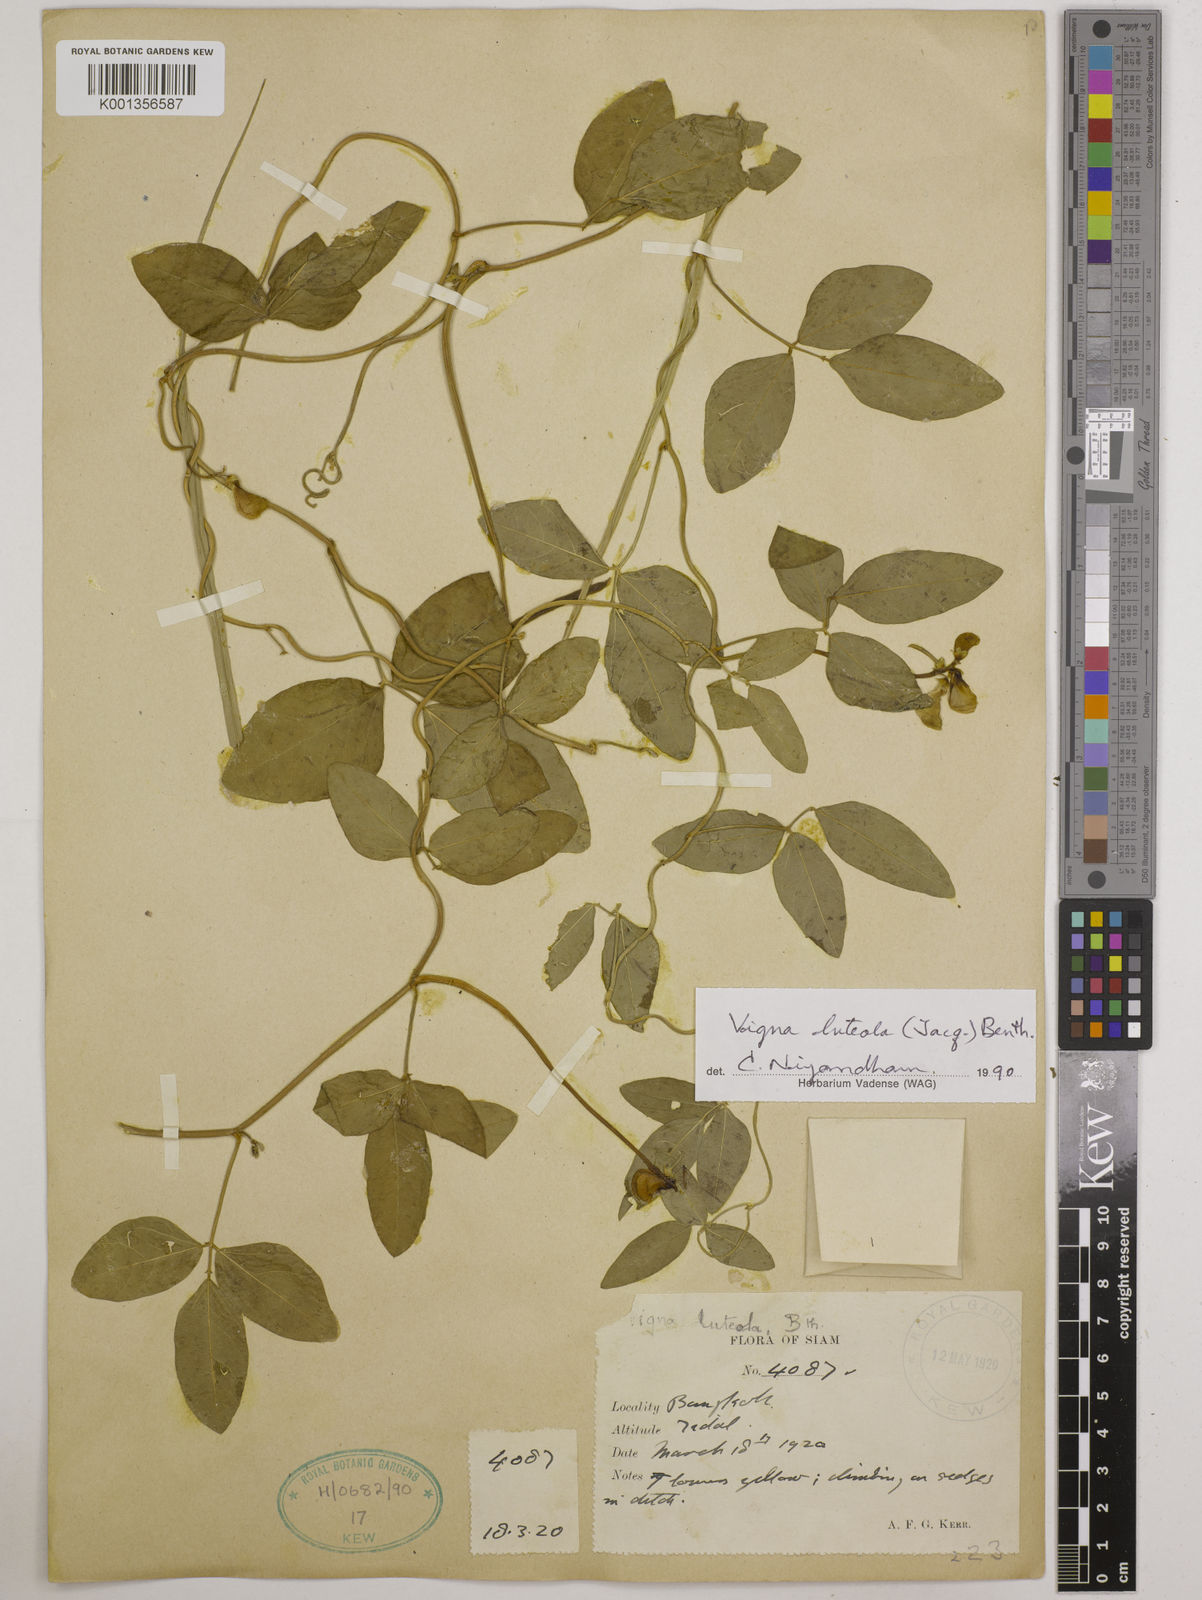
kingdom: Plantae
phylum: Tracheophyta
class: Magnoliopsida
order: Fabales
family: Fabaceae
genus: Vigna
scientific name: Vigna luteola
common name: Hairypod cowpea
